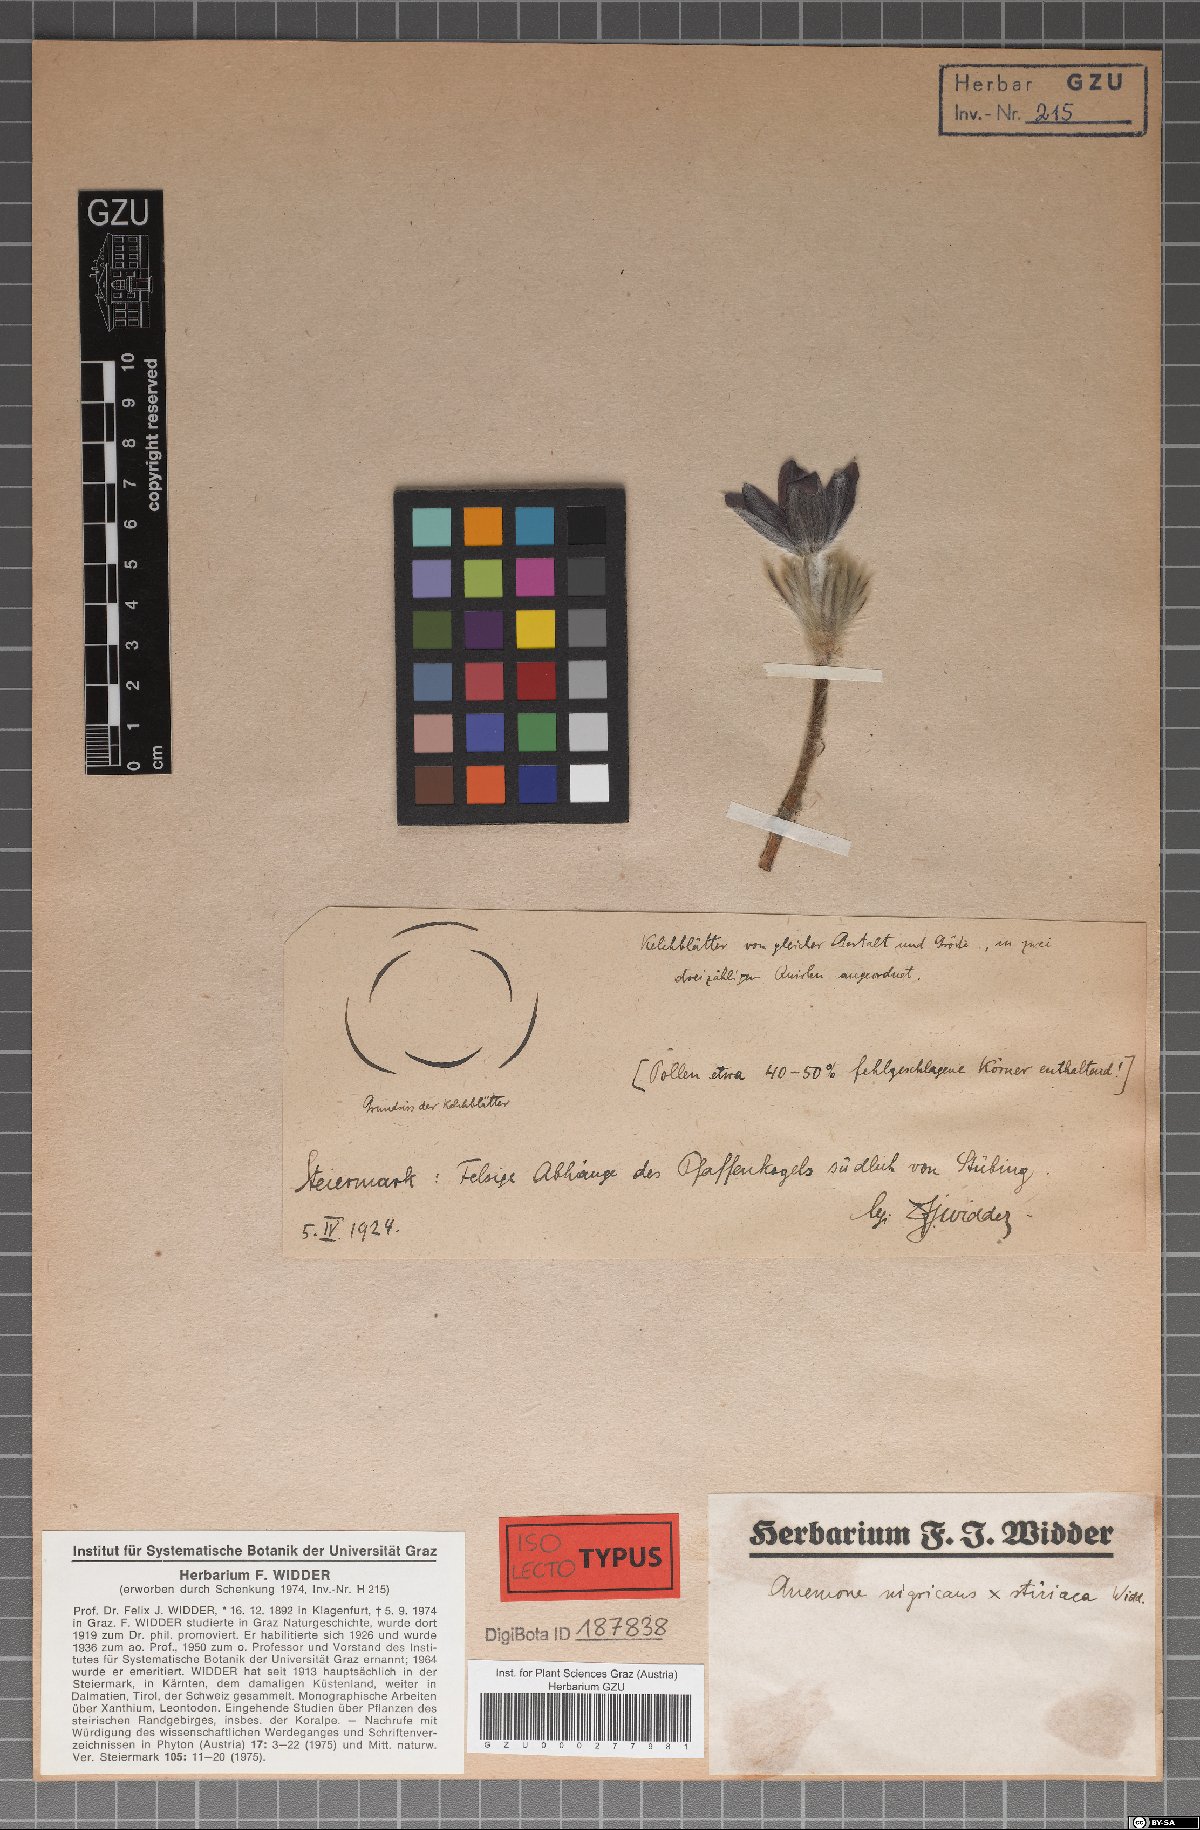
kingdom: Plantae
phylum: Tracheophyta
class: Magnoliopsida
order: Ranunculales
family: Ranunculaceae
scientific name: Ranunculaceae
